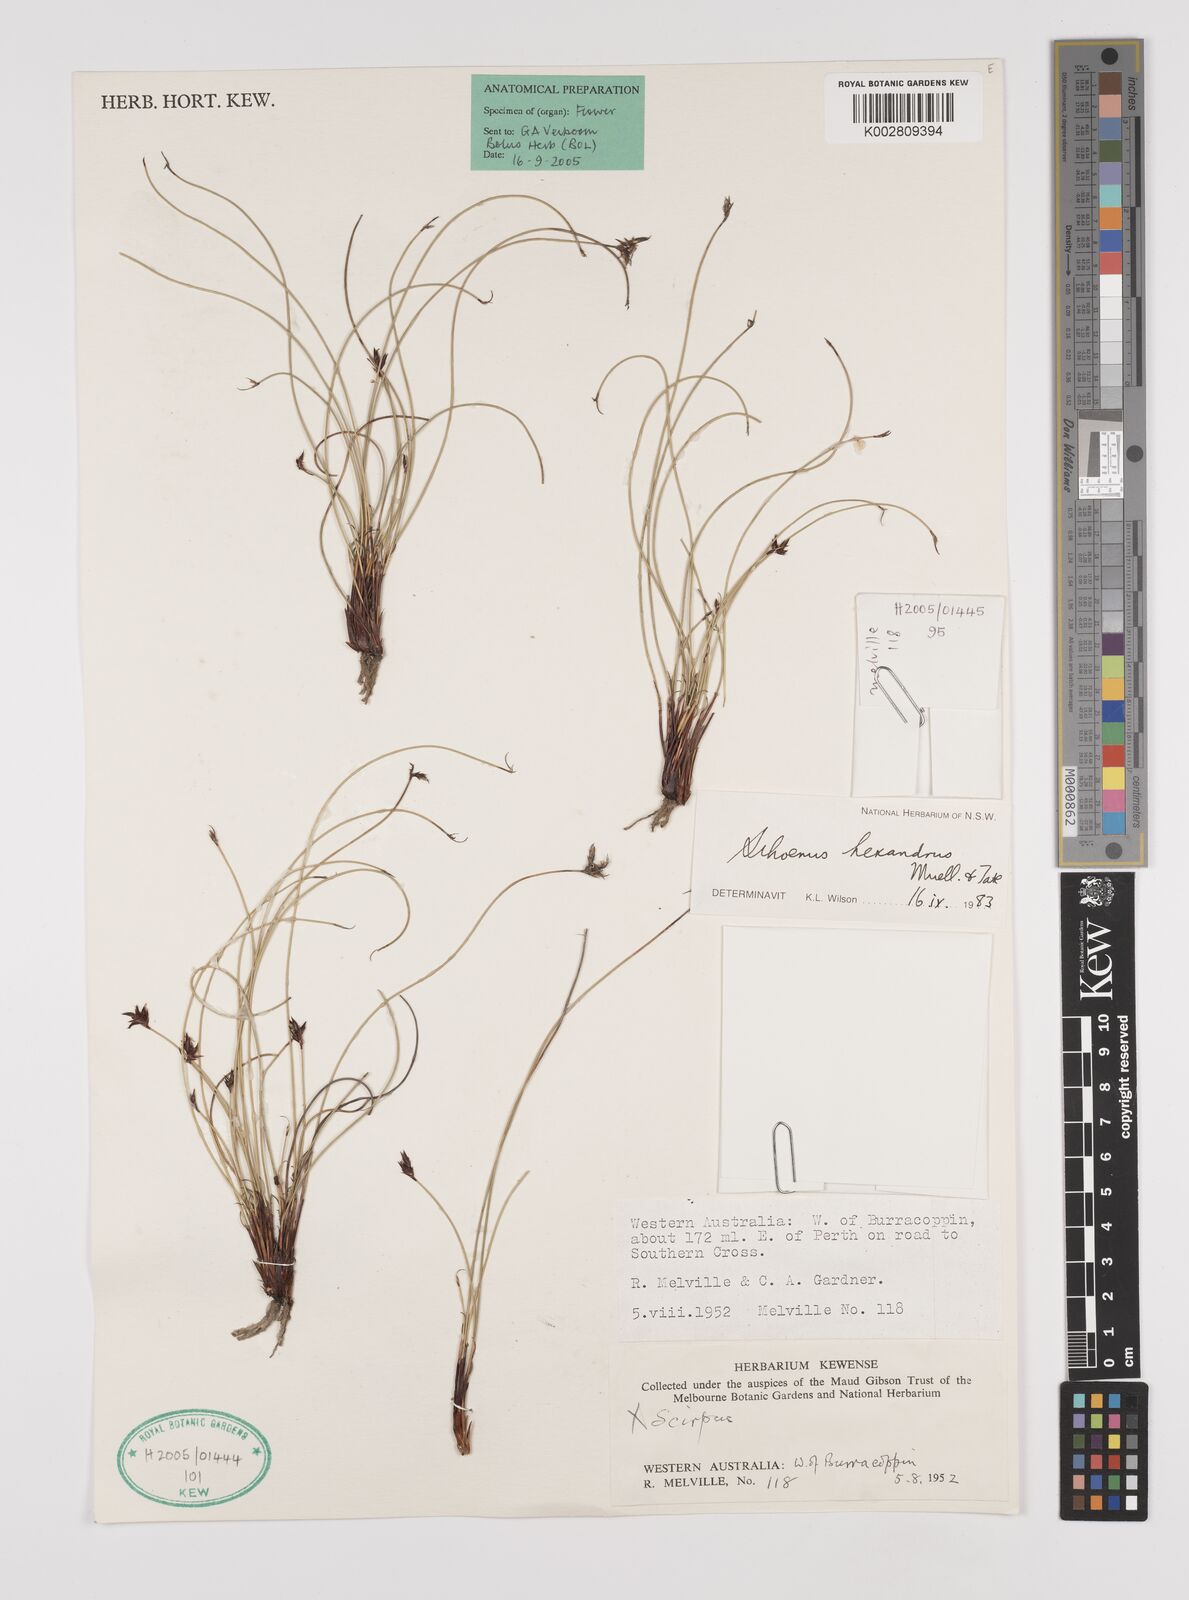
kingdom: Plantae
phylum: Tracheophyta
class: Liliopsida
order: Poales
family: Cyperaceae
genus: Schoenus
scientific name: Schoenus hexander
